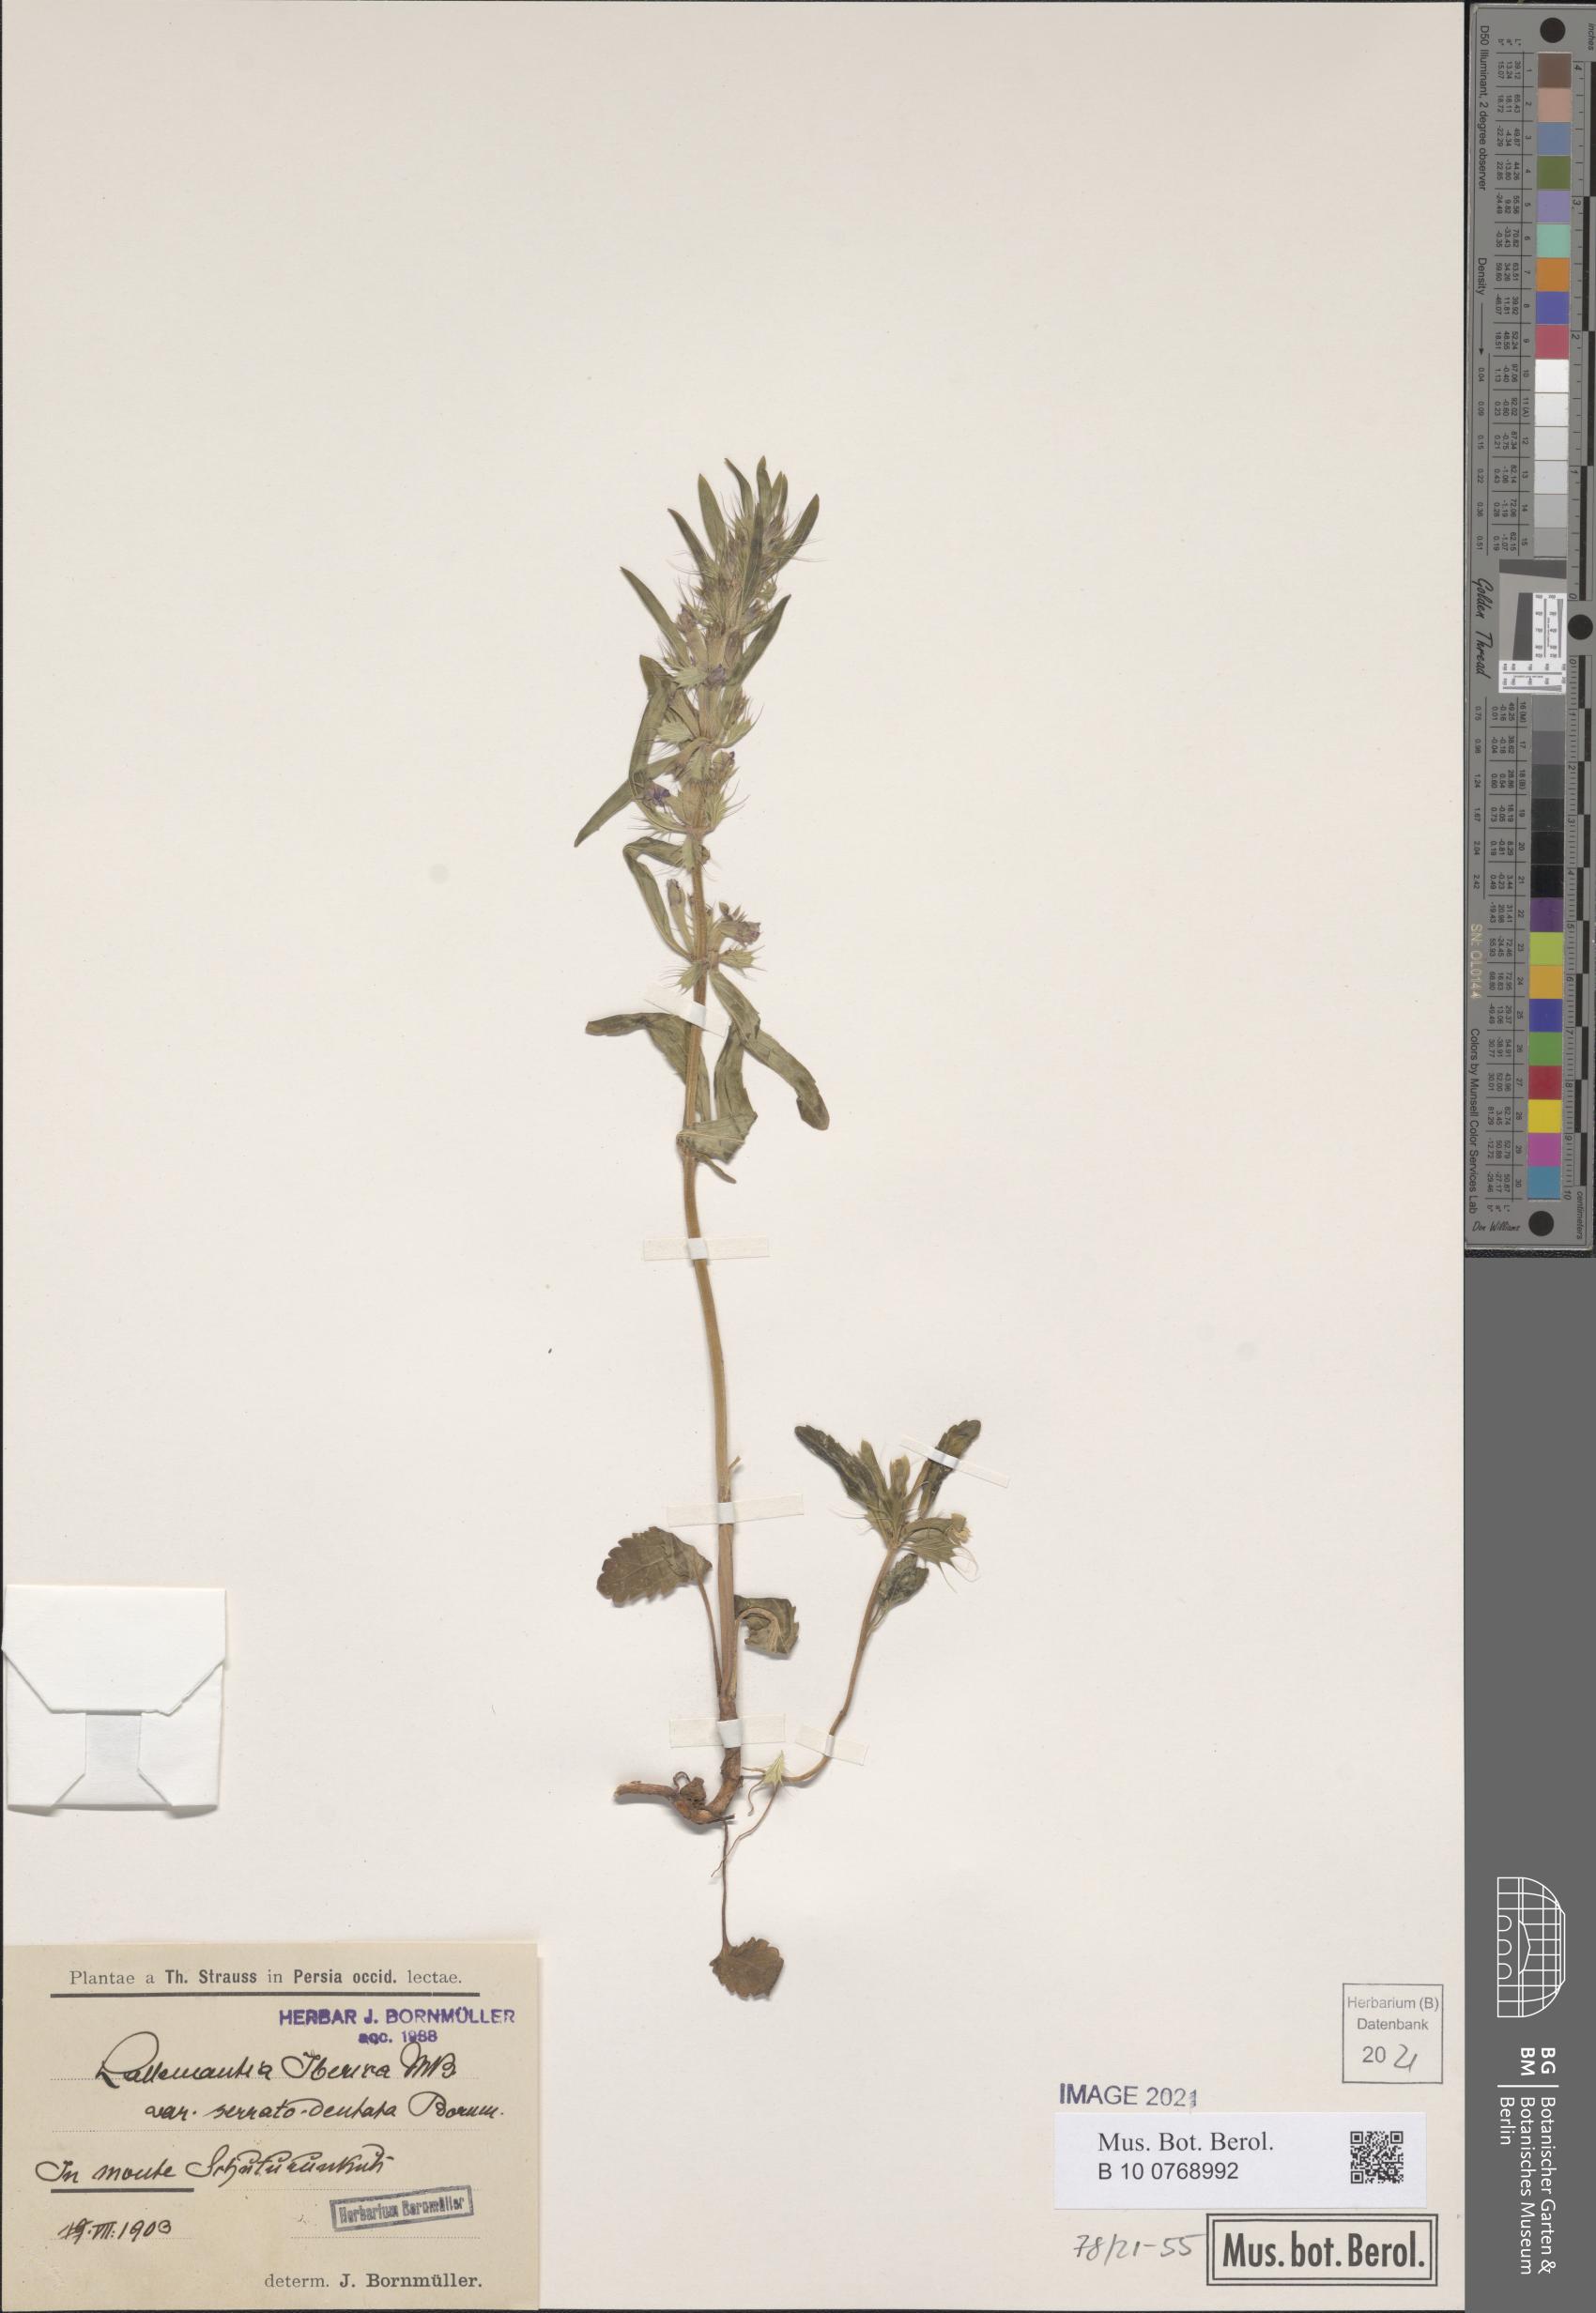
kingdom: Plantae
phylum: Tracheophyta
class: Magnoliopsida
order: Lamiales
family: Lamiaceae
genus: Lallemantia
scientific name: Lallemantia iberica
